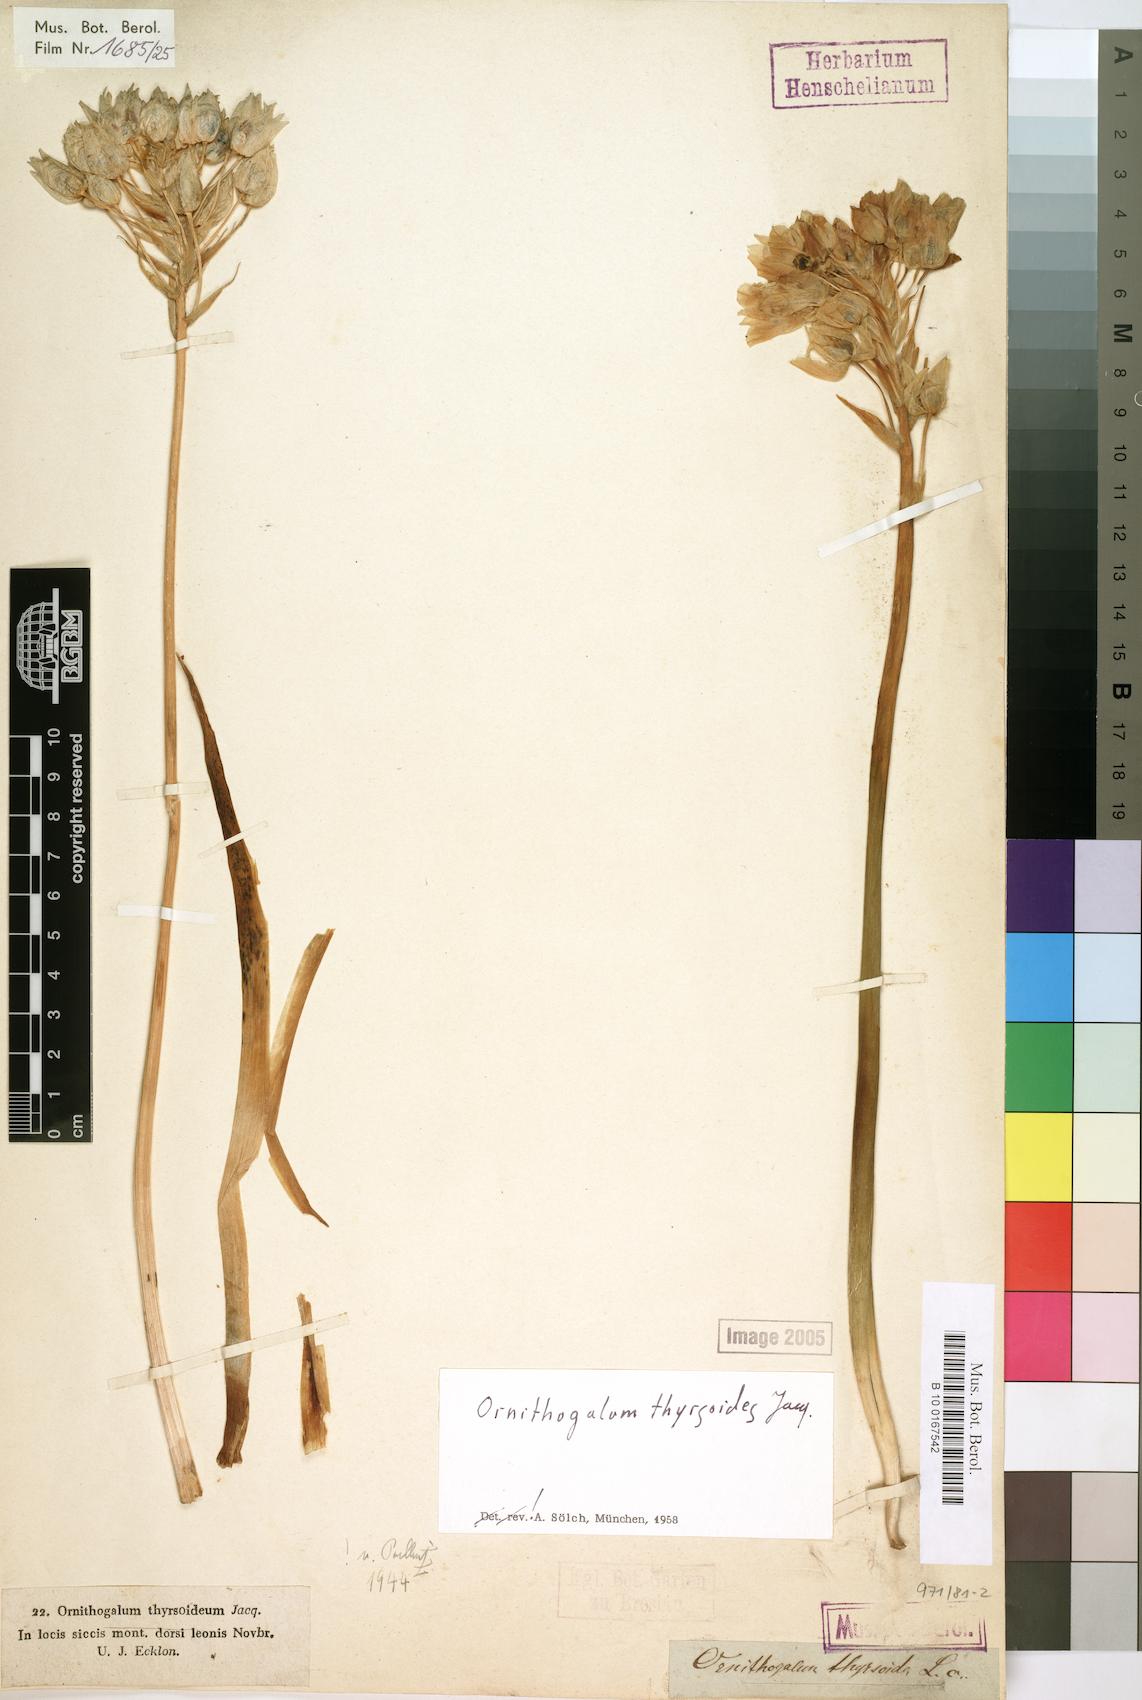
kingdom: Plantae
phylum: Tracheophyta
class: Liliopsida
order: Asparagales
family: Asparagaceae
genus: Ornithogalum
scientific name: Ornithogalum thyrsoides
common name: Chincherinchee
